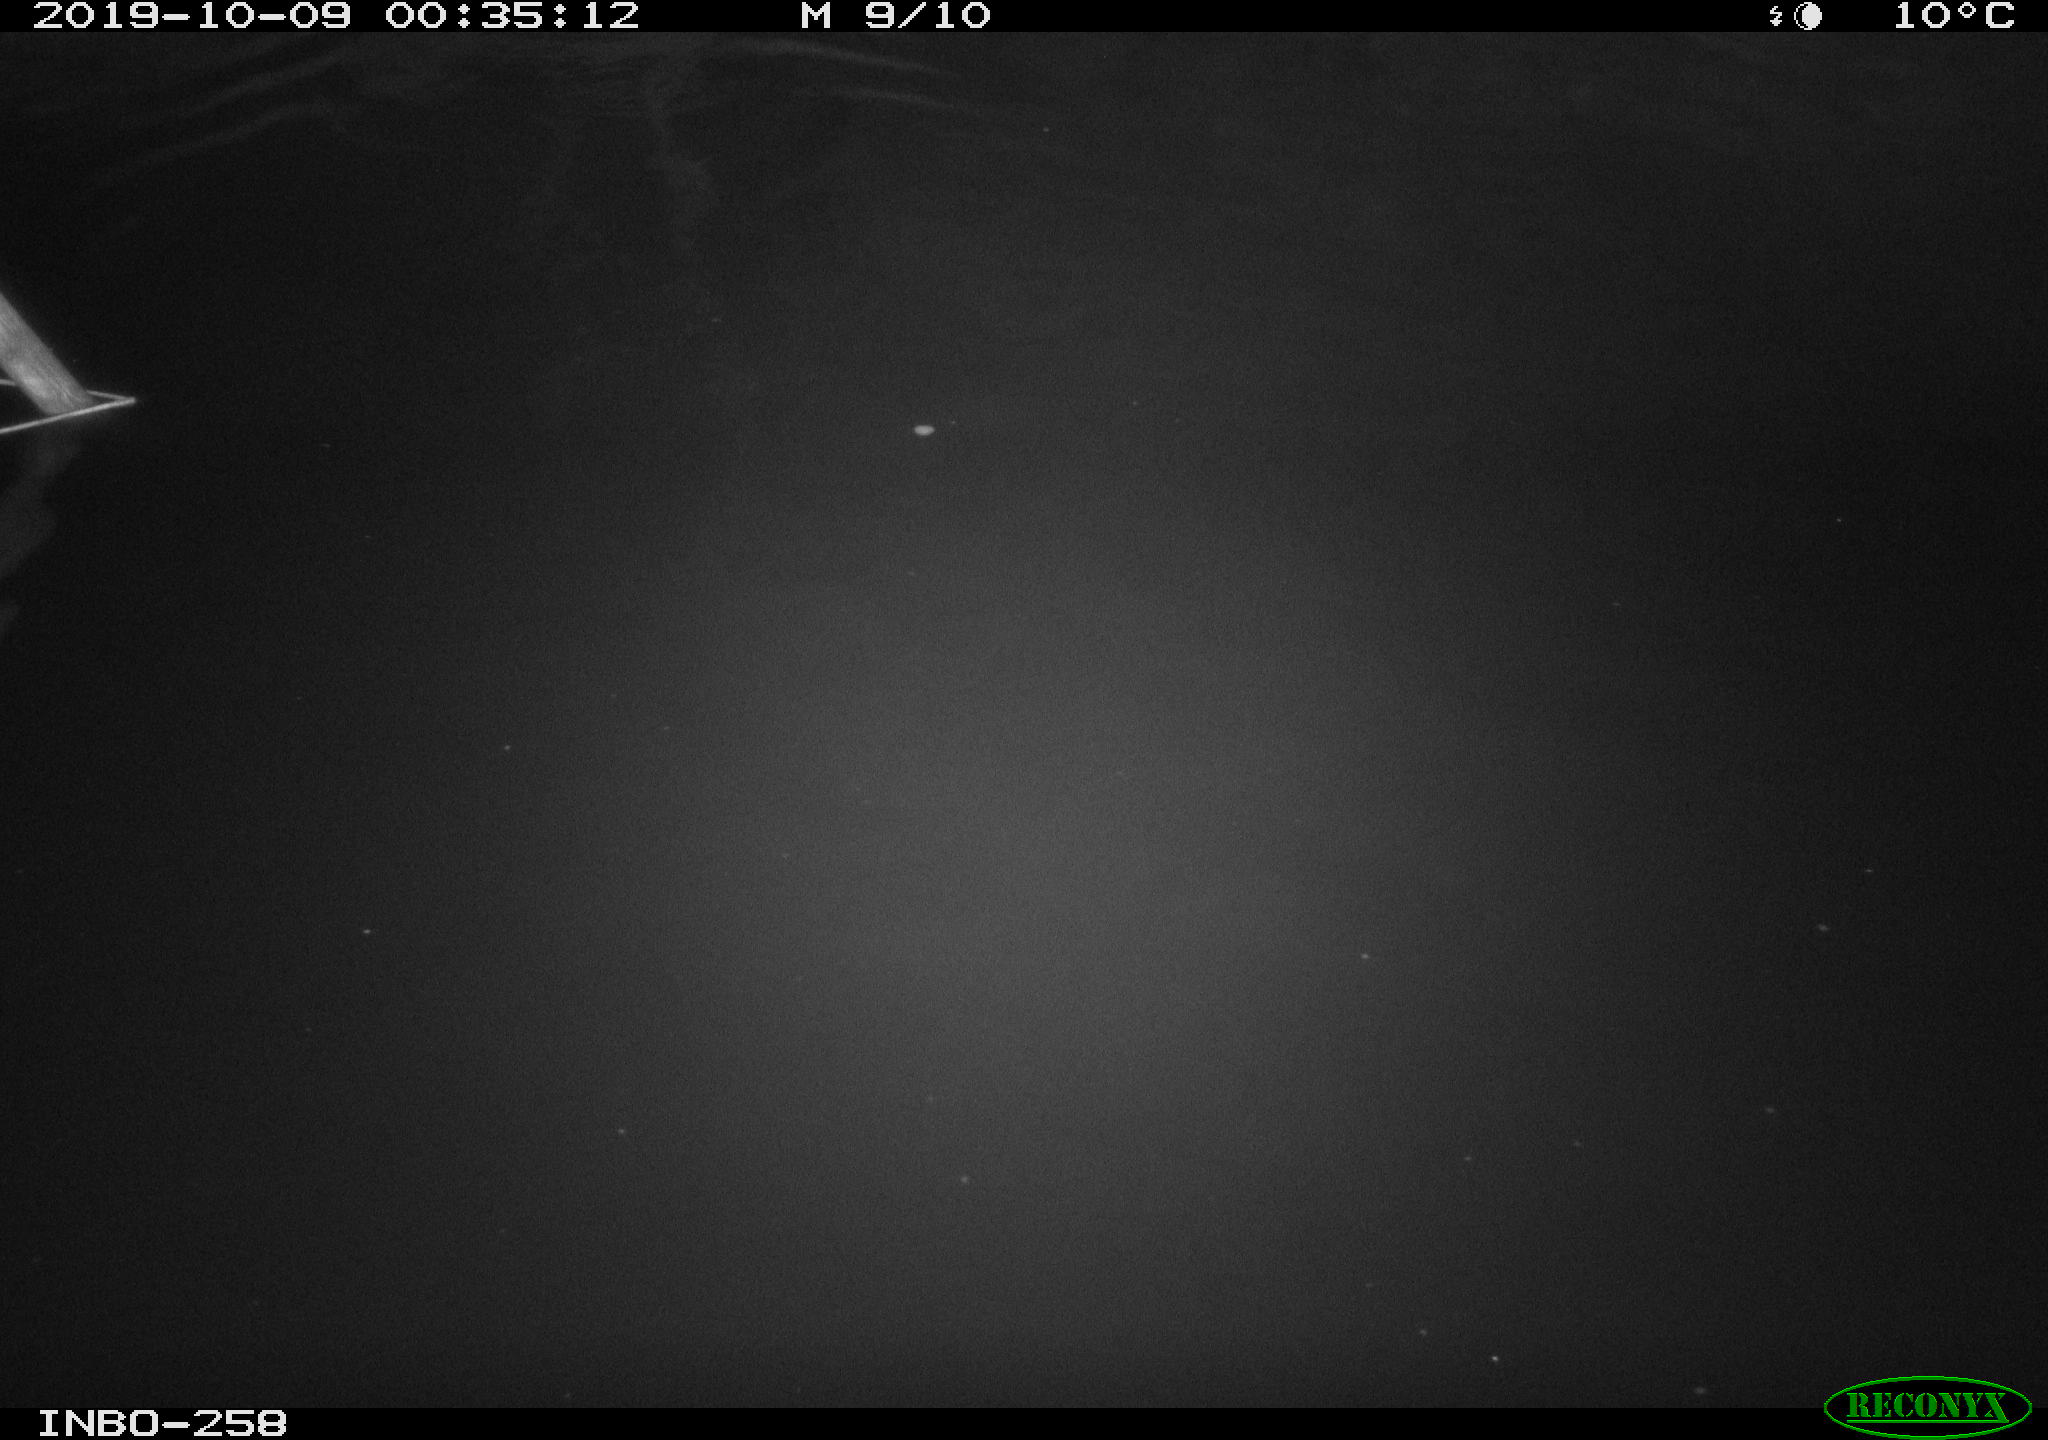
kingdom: Animalia
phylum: Chordata
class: Mammalia
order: Rodentia
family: Muridae
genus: Rattus
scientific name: Rattus norvegicus
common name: Brown rat
